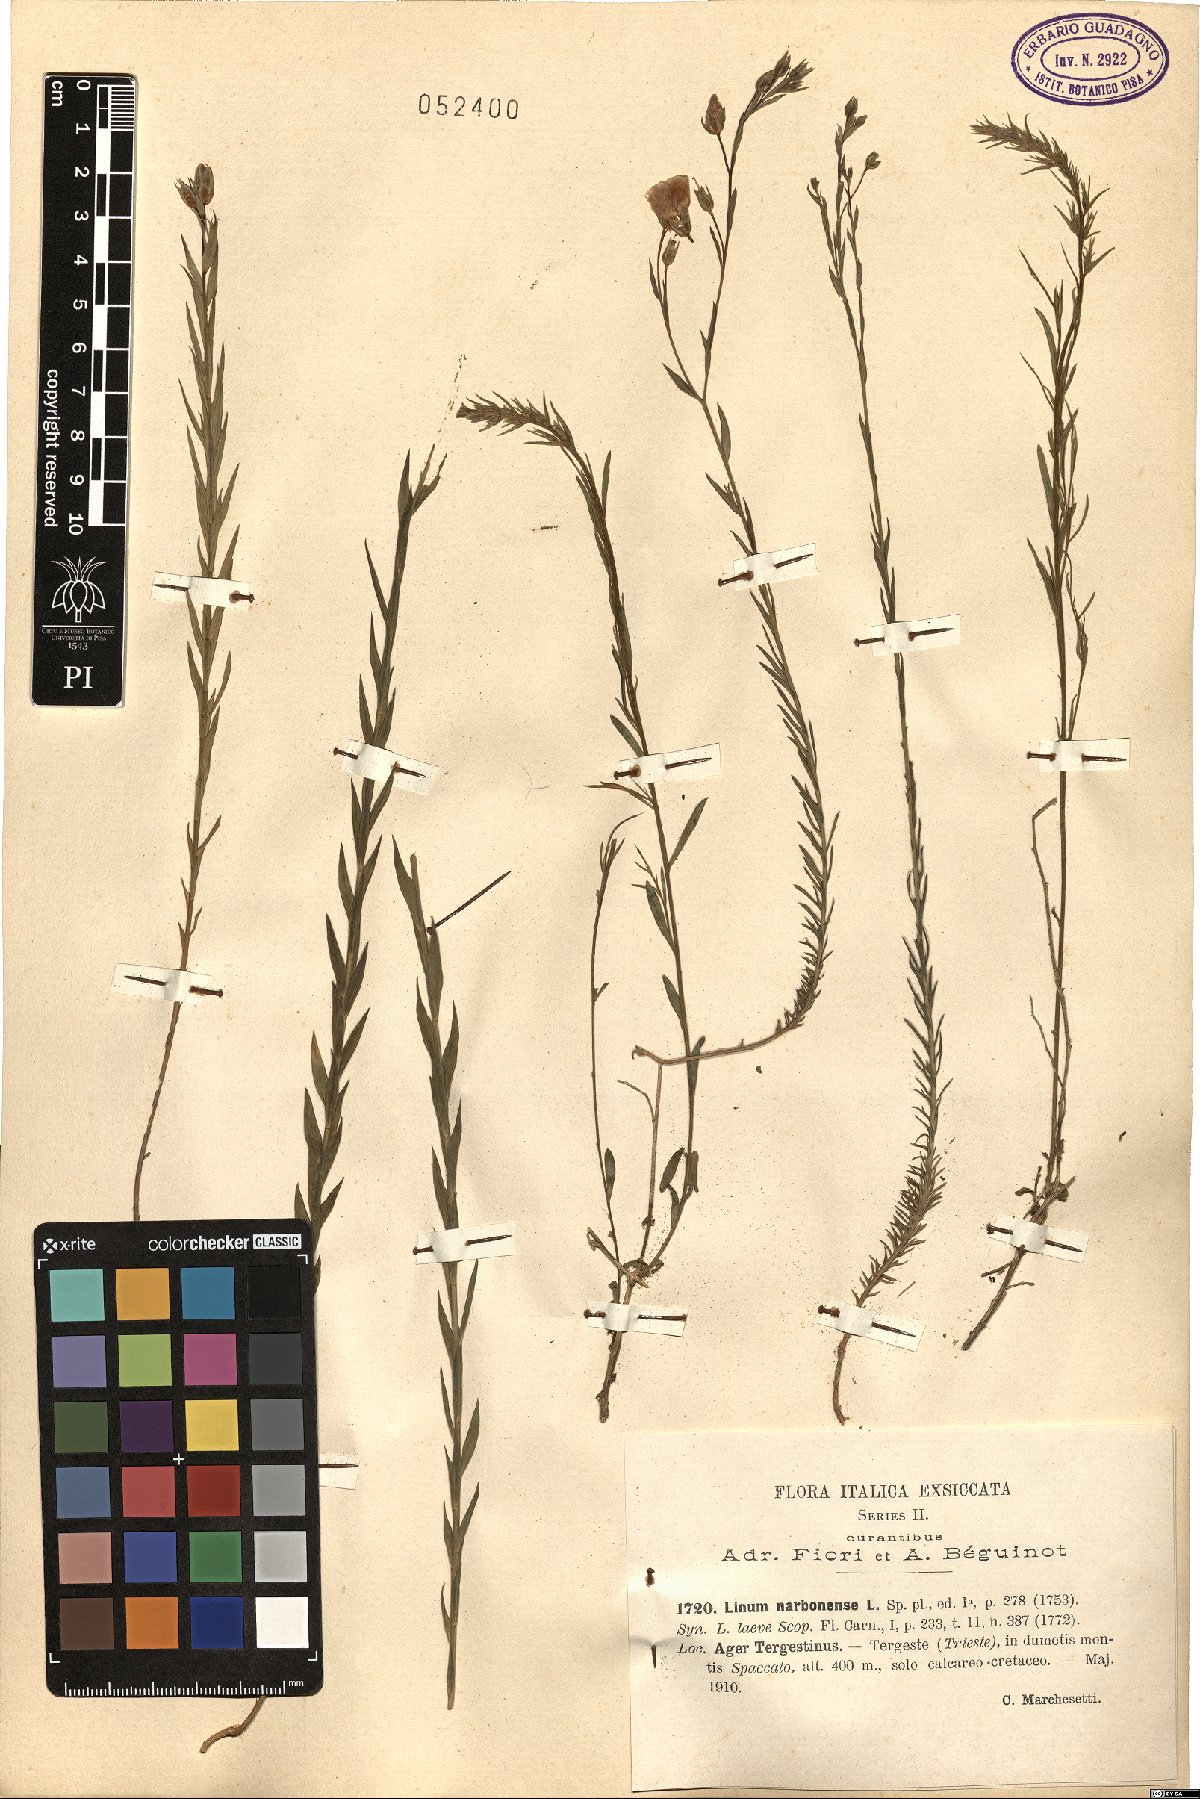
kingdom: Plantae
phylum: Tracheophyta
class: Magnoliopsida
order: Malpighiales
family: Linaceae
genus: Linum
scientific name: Linum narbonense
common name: Flax
